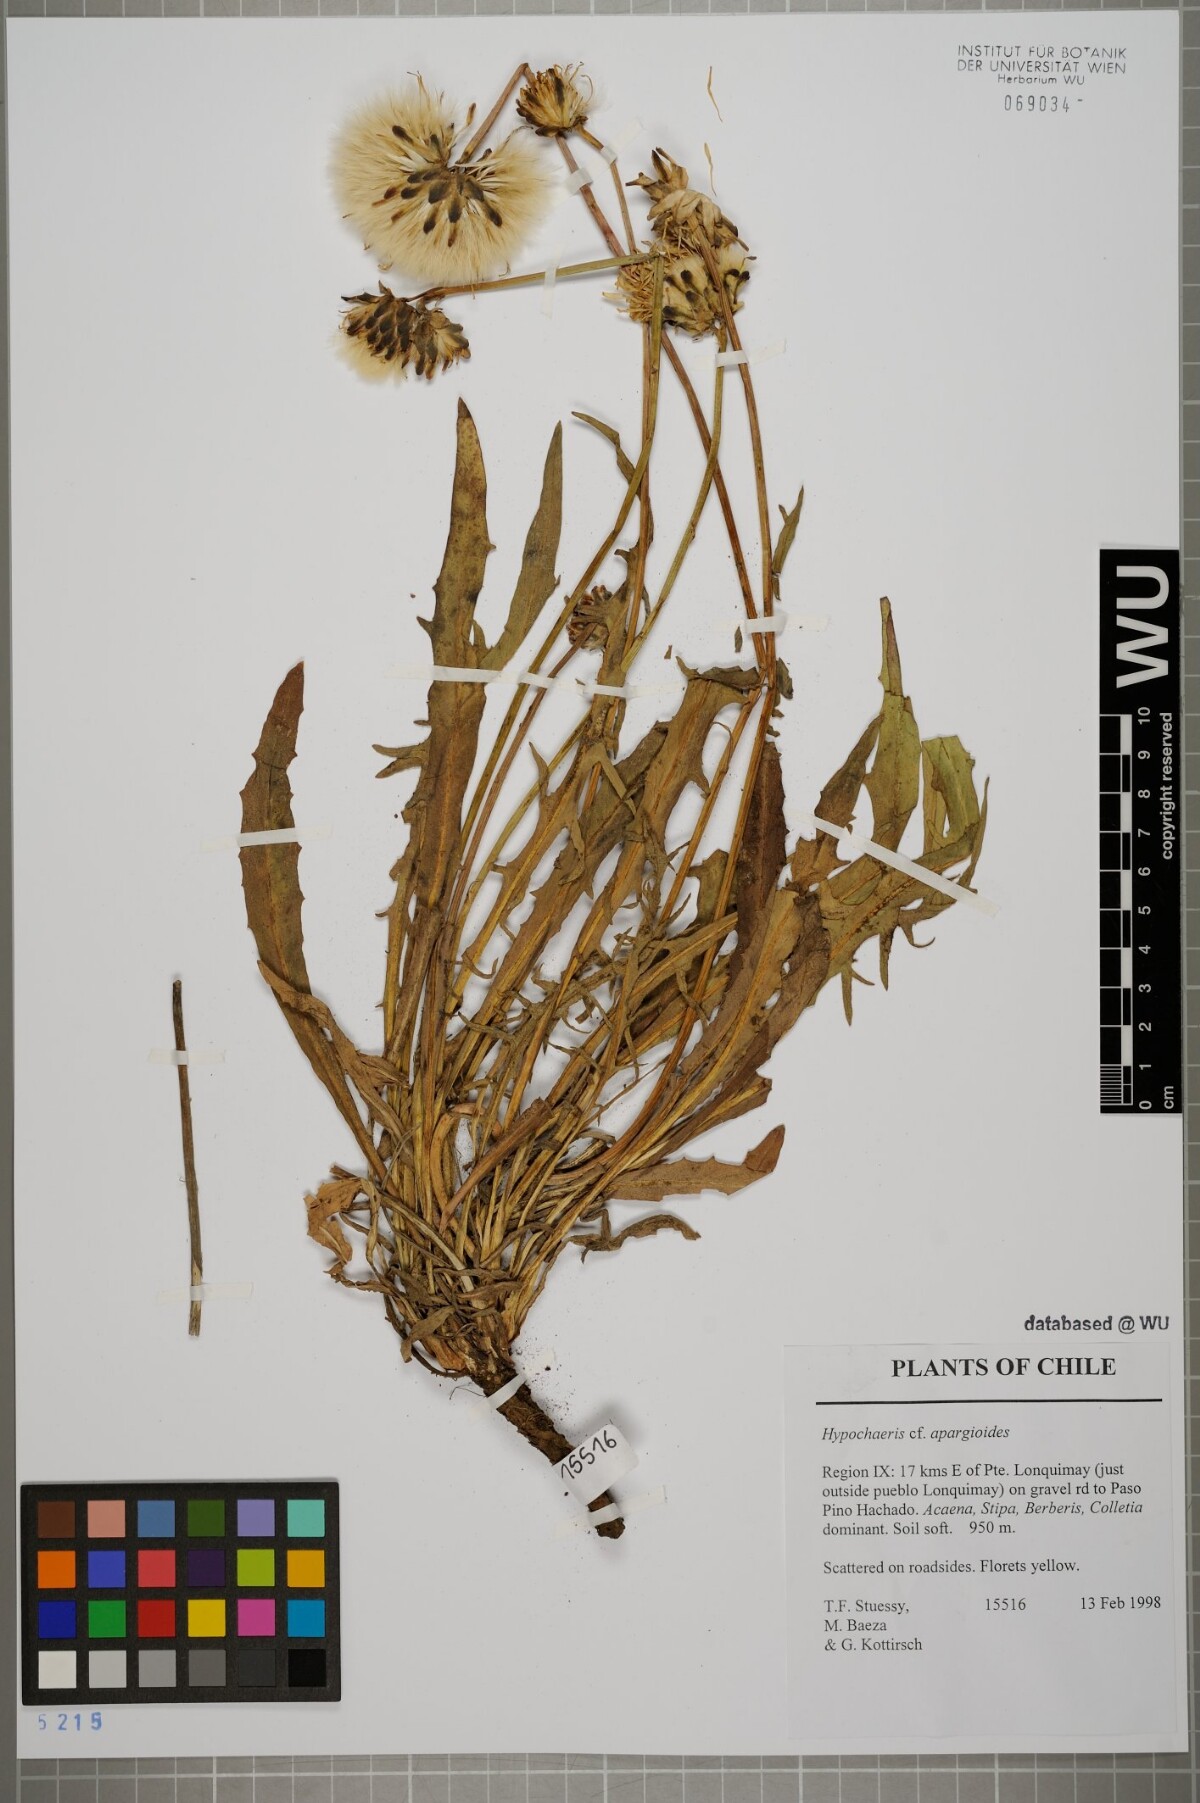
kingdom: Plantae
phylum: Tracheophyta
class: Magnoliopsida
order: Asterales
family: Asteraceae
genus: Hypochaeris
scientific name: Hypochaeris apargioides
